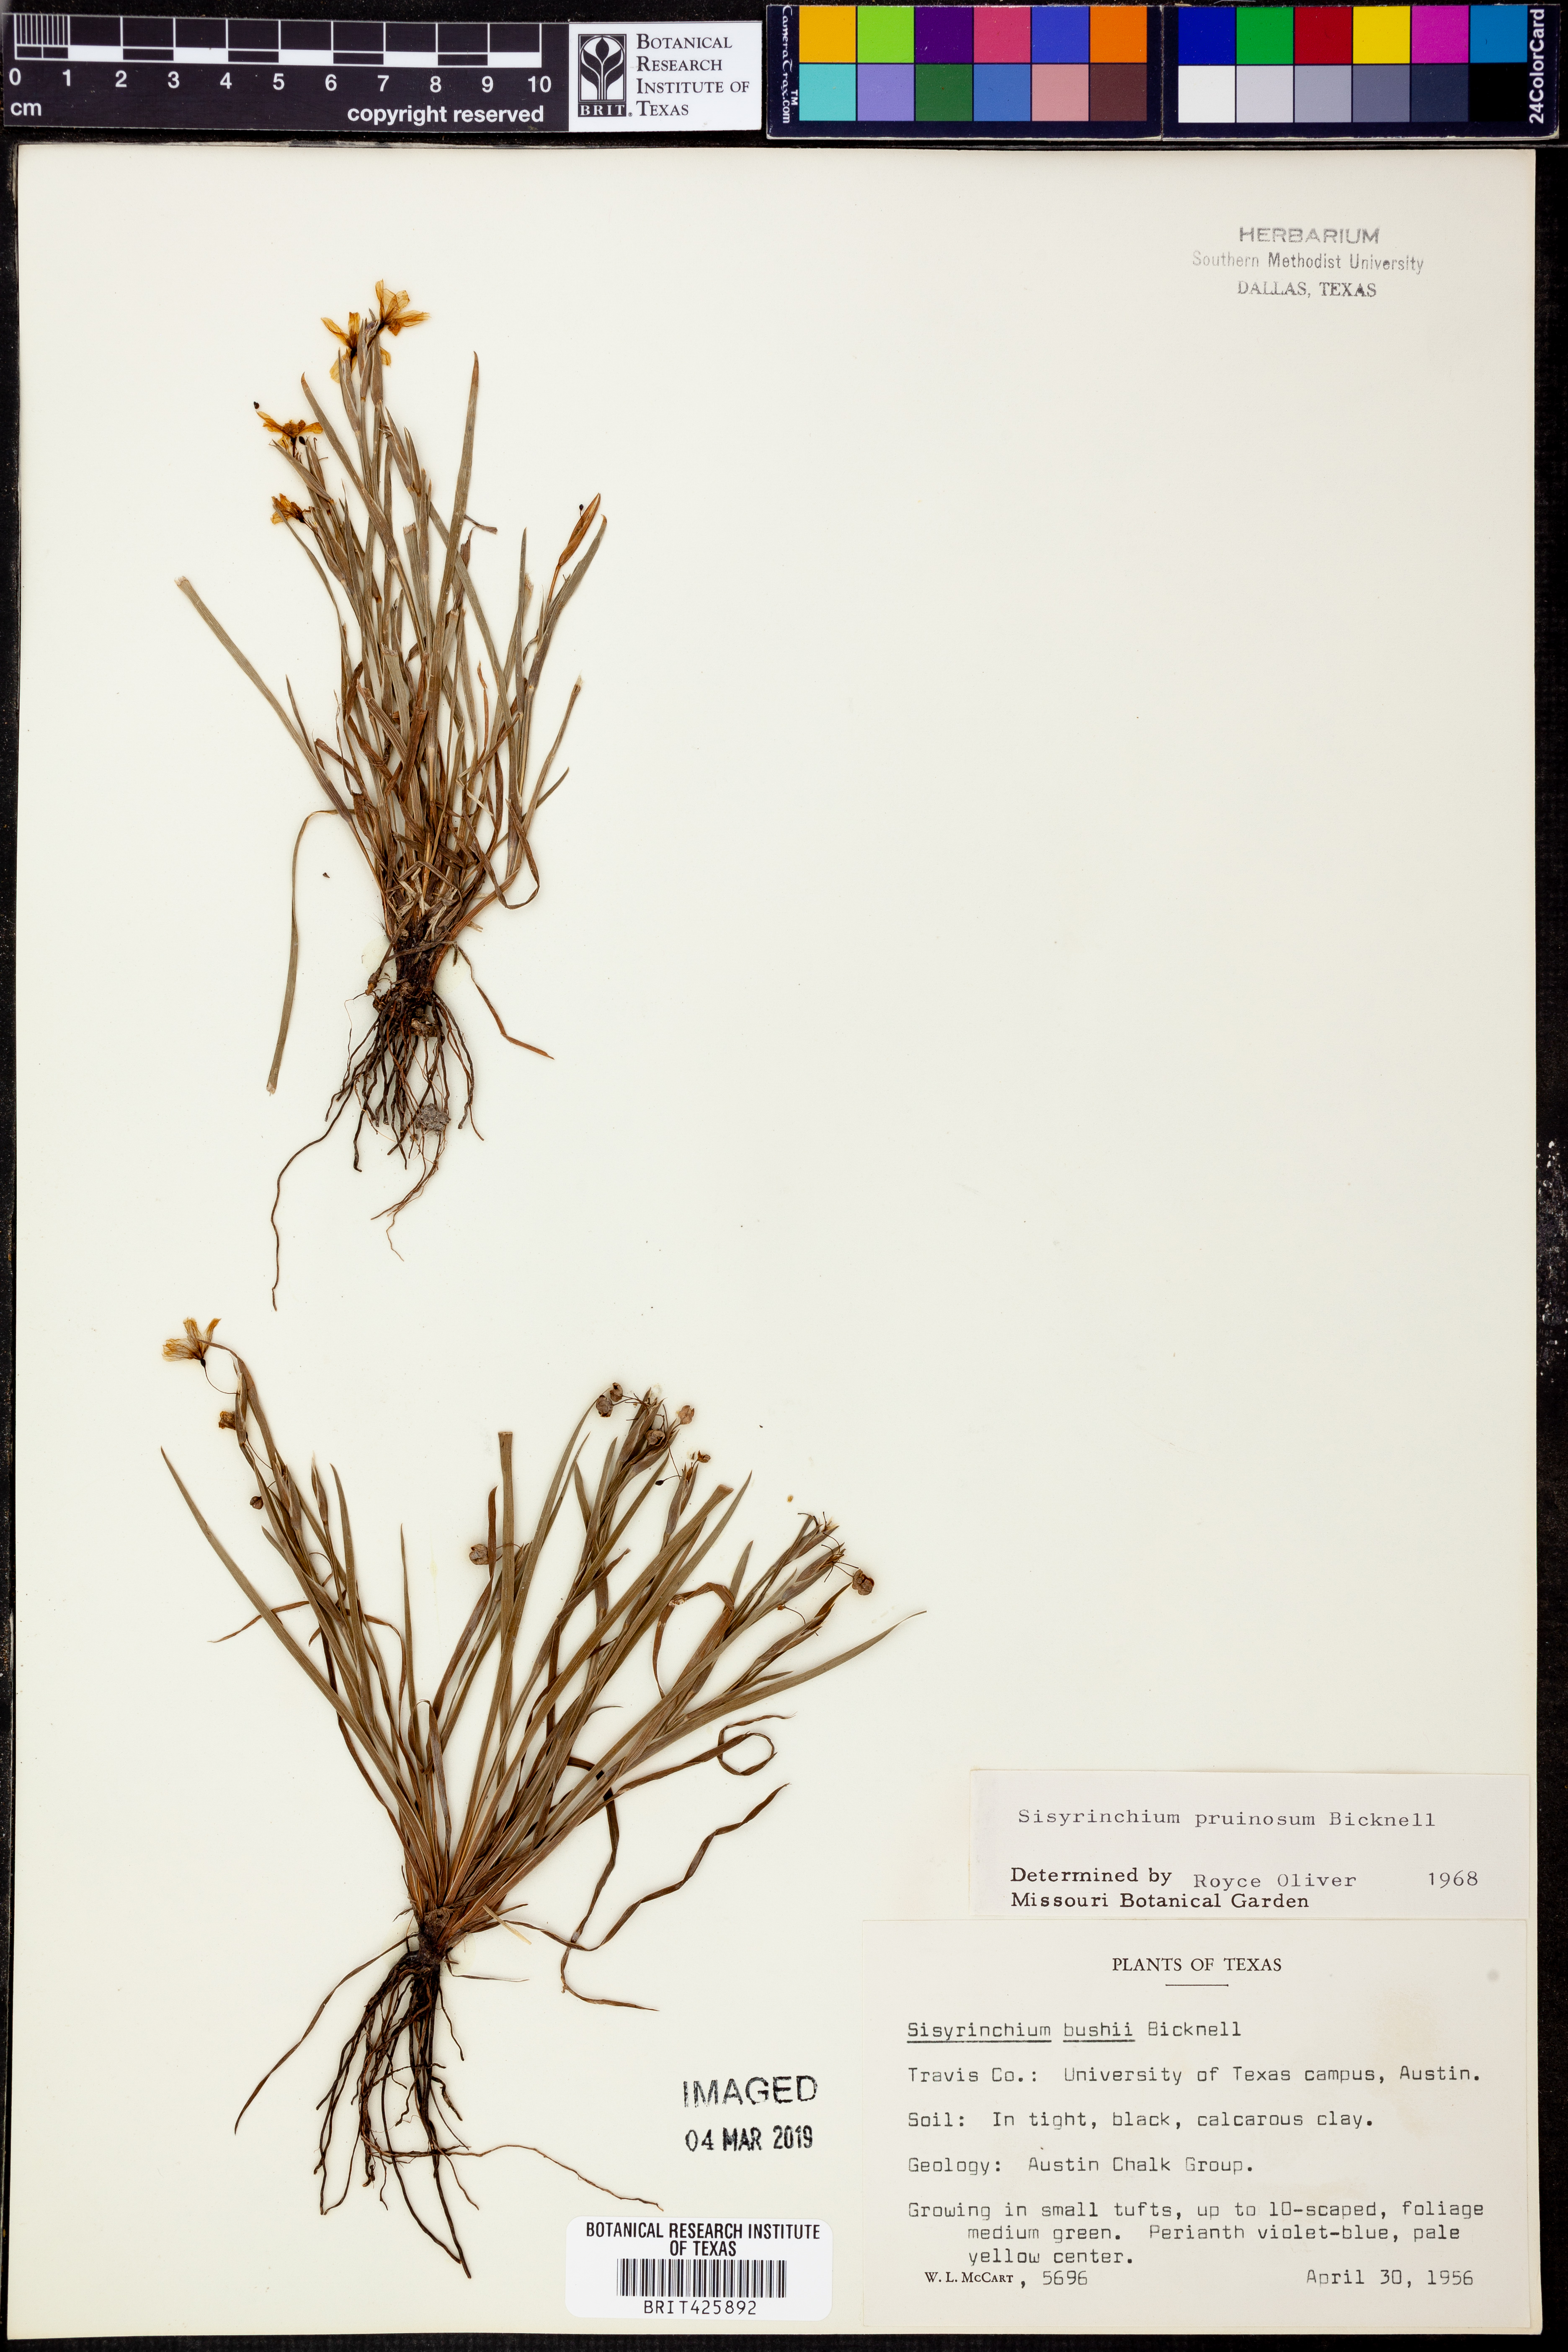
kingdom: Plantae
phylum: Tracheophyta
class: Liliopsida
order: Asparagales
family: Iridaceae
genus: Sisyrinchium
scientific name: Sisyrinchium pruinosum
